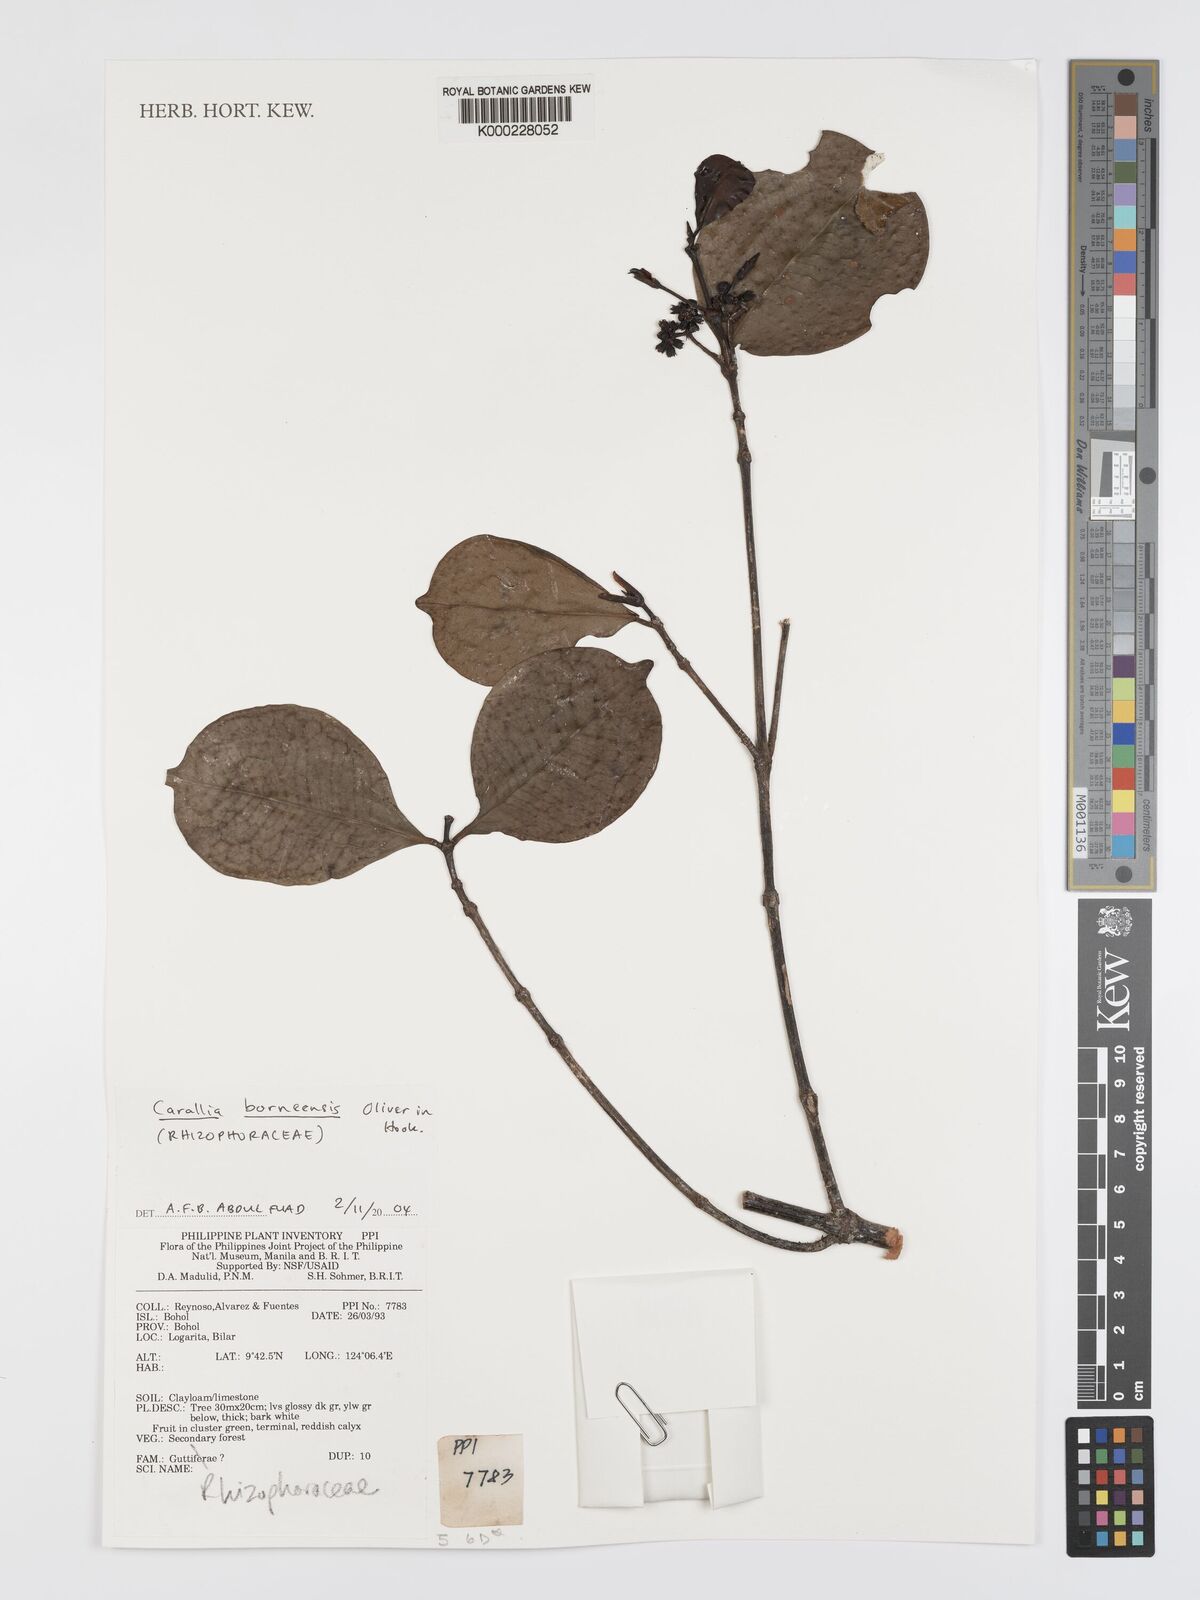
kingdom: Plantae
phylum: Tracheophyta
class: Magnoliopsida
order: Malpighiales
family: Rhizophoraceae
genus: Carallia
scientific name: Carallia borneensis
